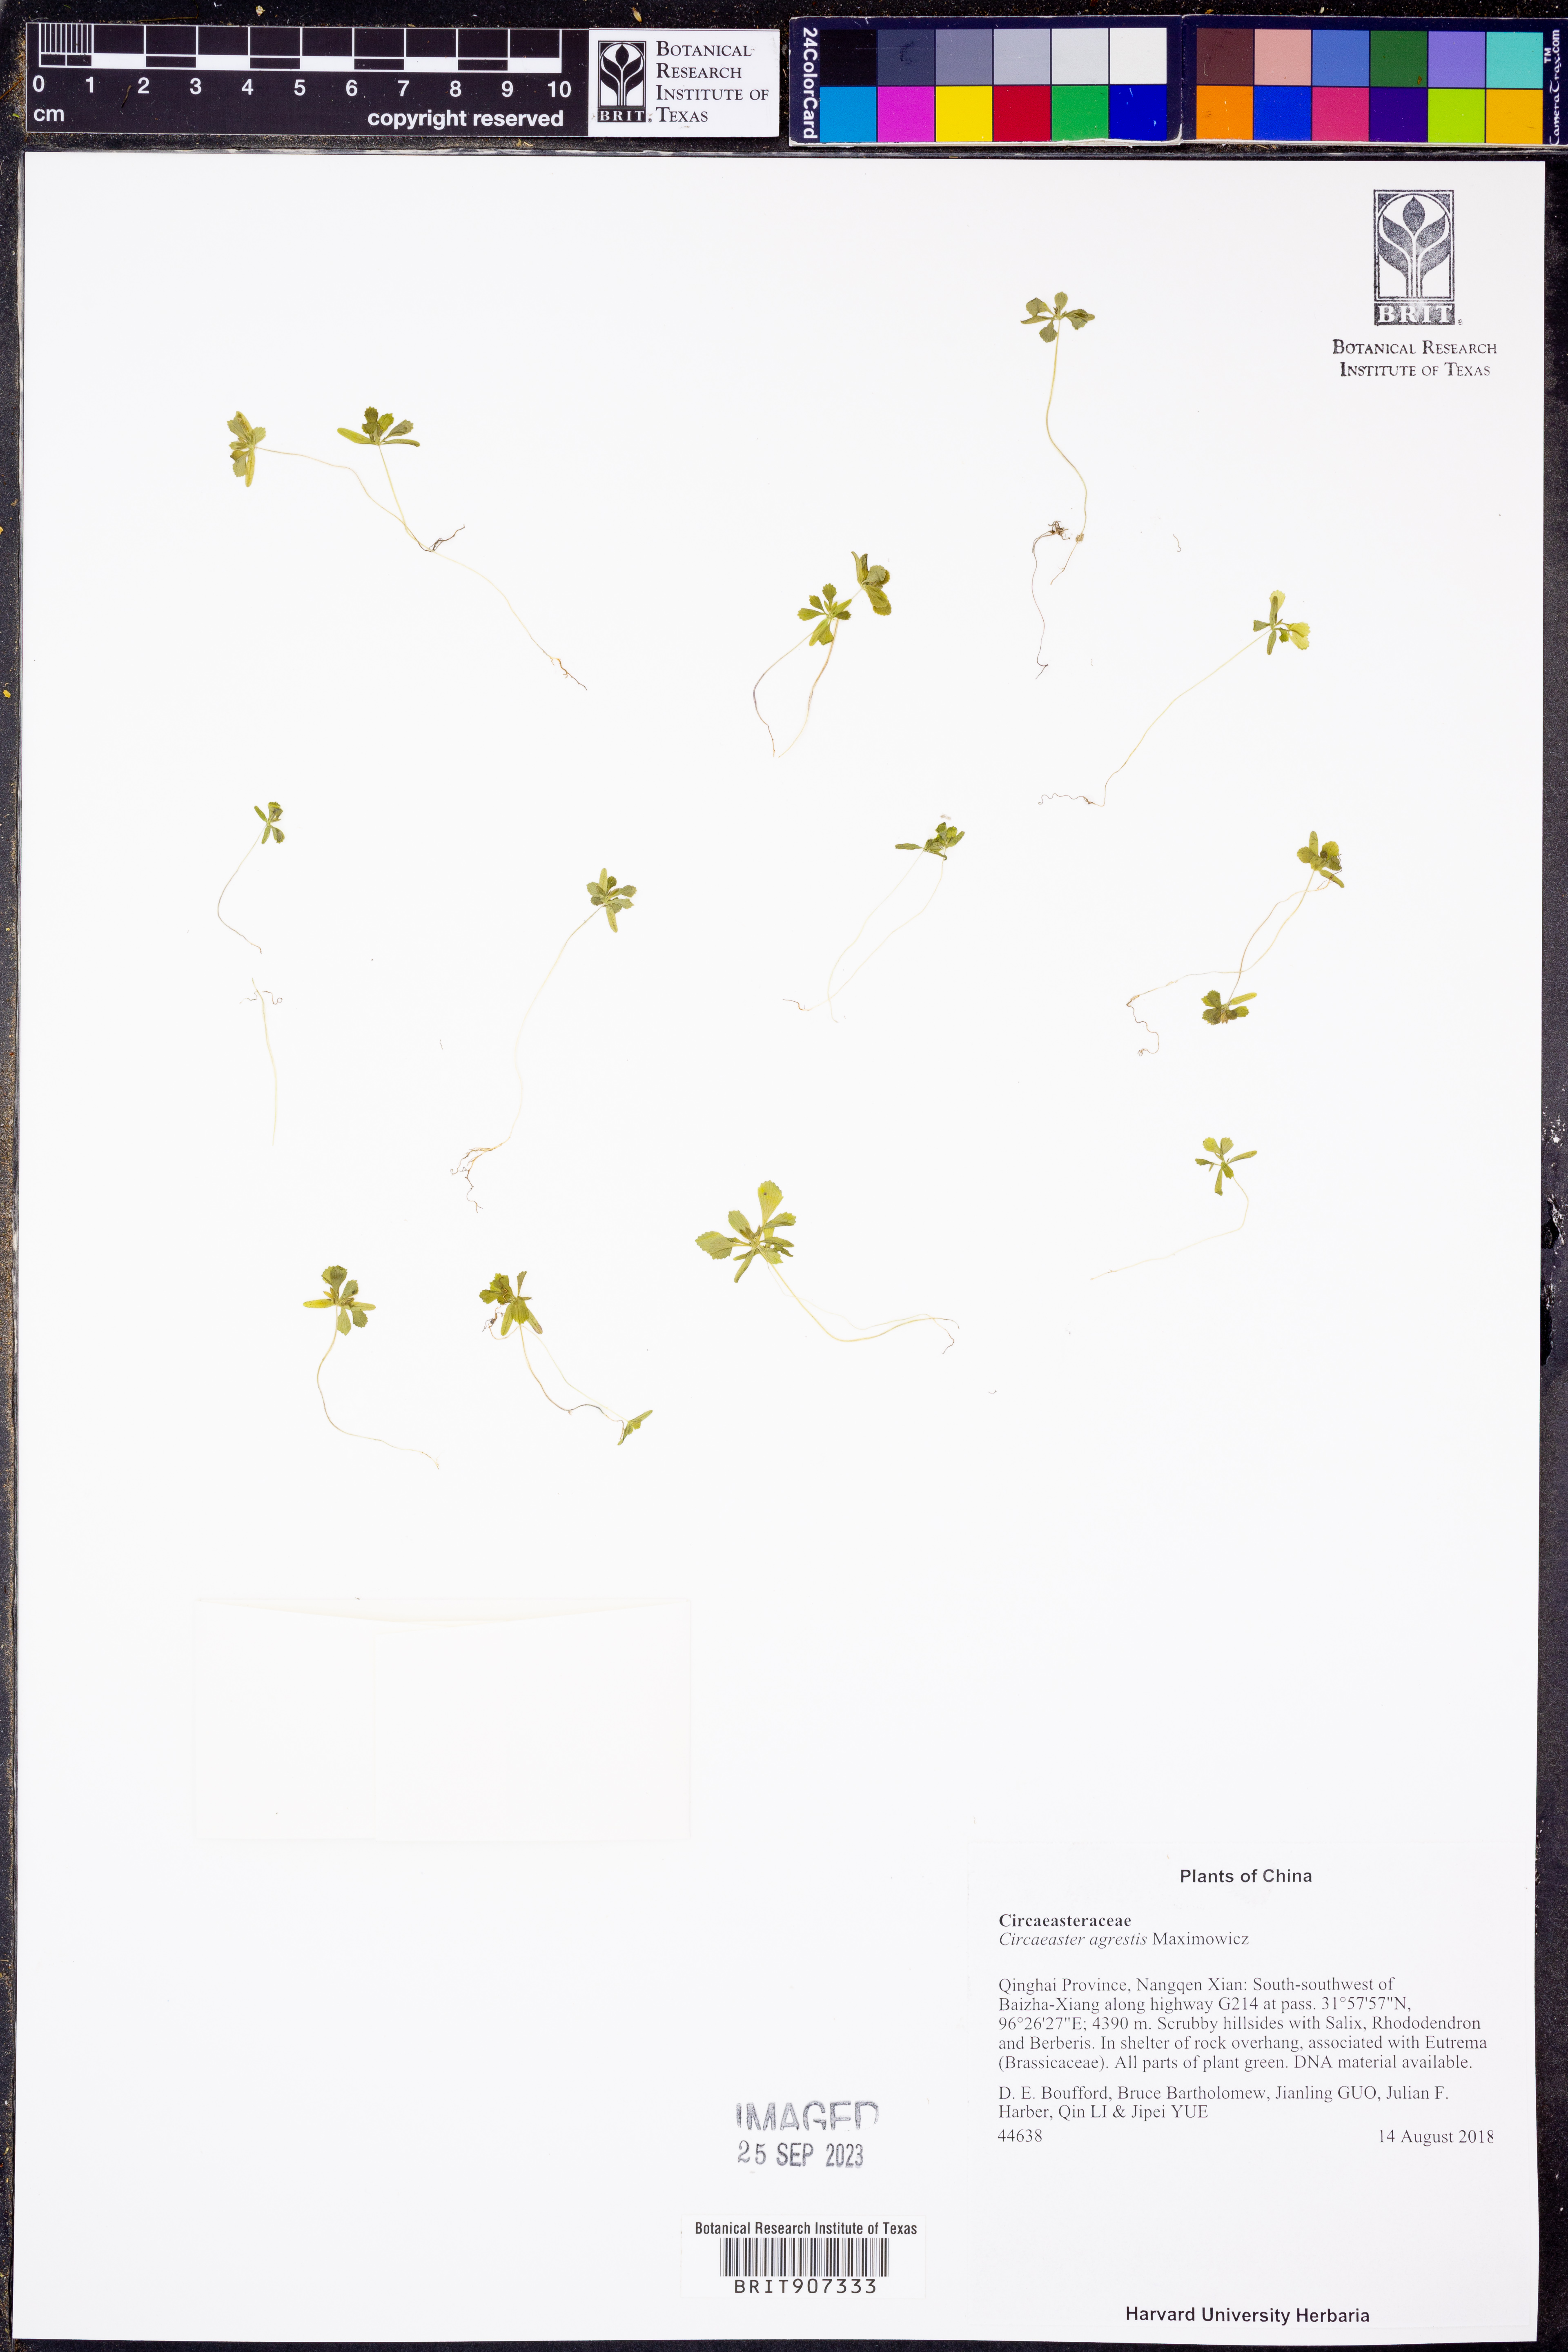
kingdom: Plantae
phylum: Tracheophyta
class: Magnoliopsida
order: Ranunculales
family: Circaeasteraceae
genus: Circaeaster
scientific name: Circaeaster agrestis
